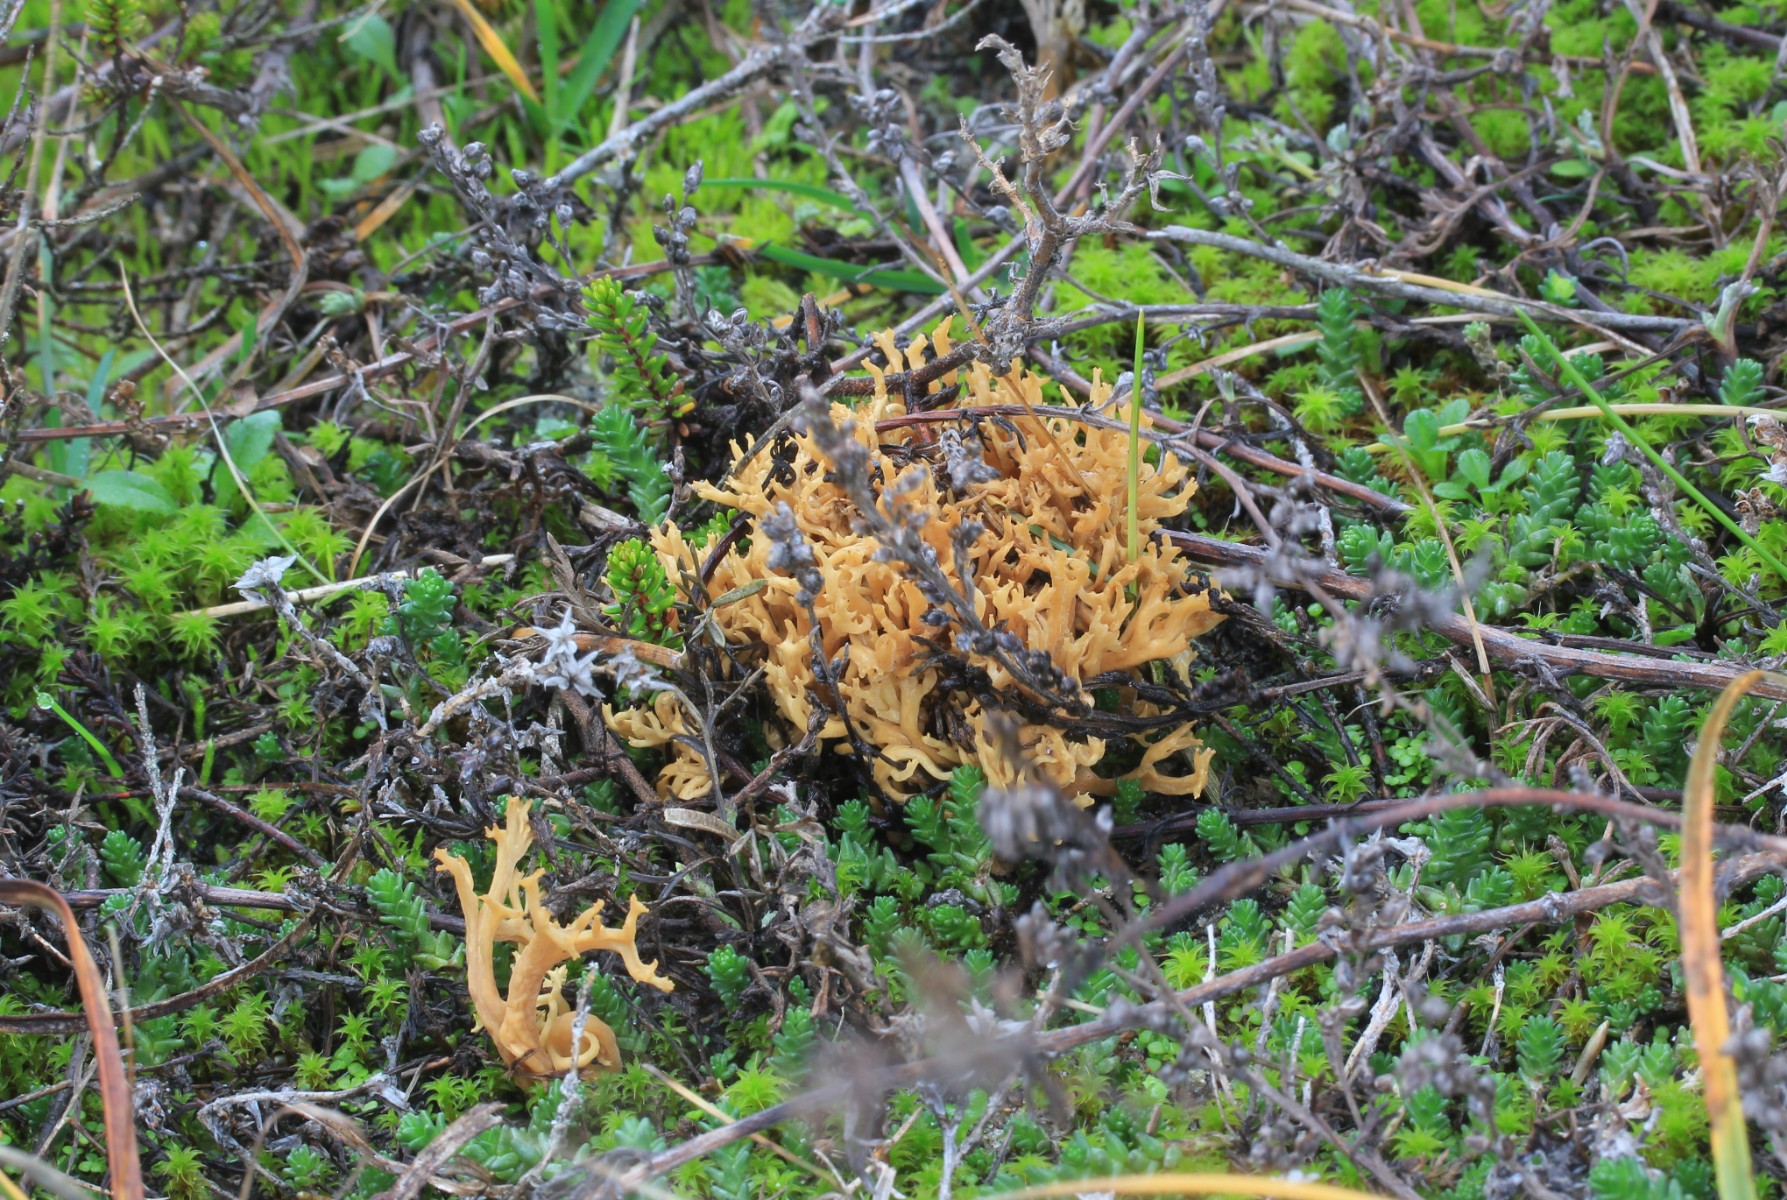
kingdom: Fungi
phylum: Basidiomycota
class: Agaricomycetes
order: Agaricales
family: Clavariaceae
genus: Clavulinopsis
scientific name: Clavulinopsis corniculata
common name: eng-køllesvamp
